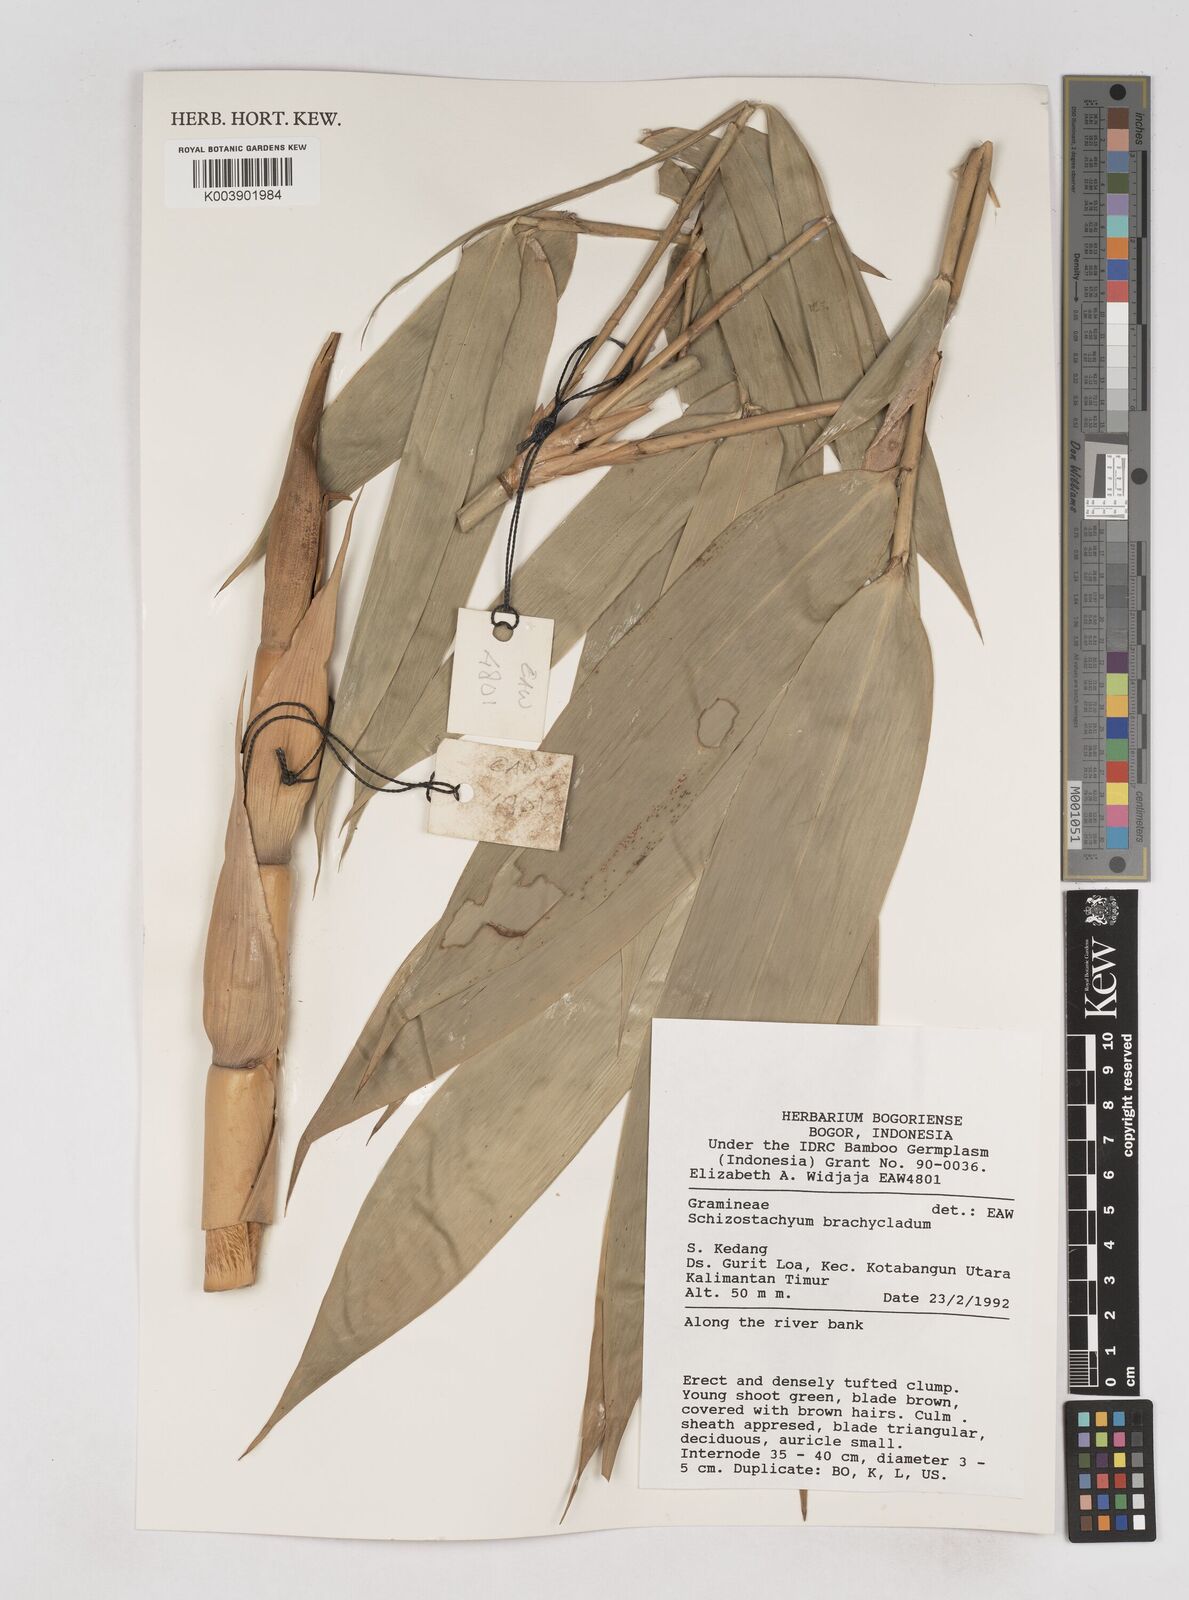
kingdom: Plantae
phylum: Tracheophyta
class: Liliopsida
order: Poales
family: Poaceae
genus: Schizostachyum
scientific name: Schizostachyum
